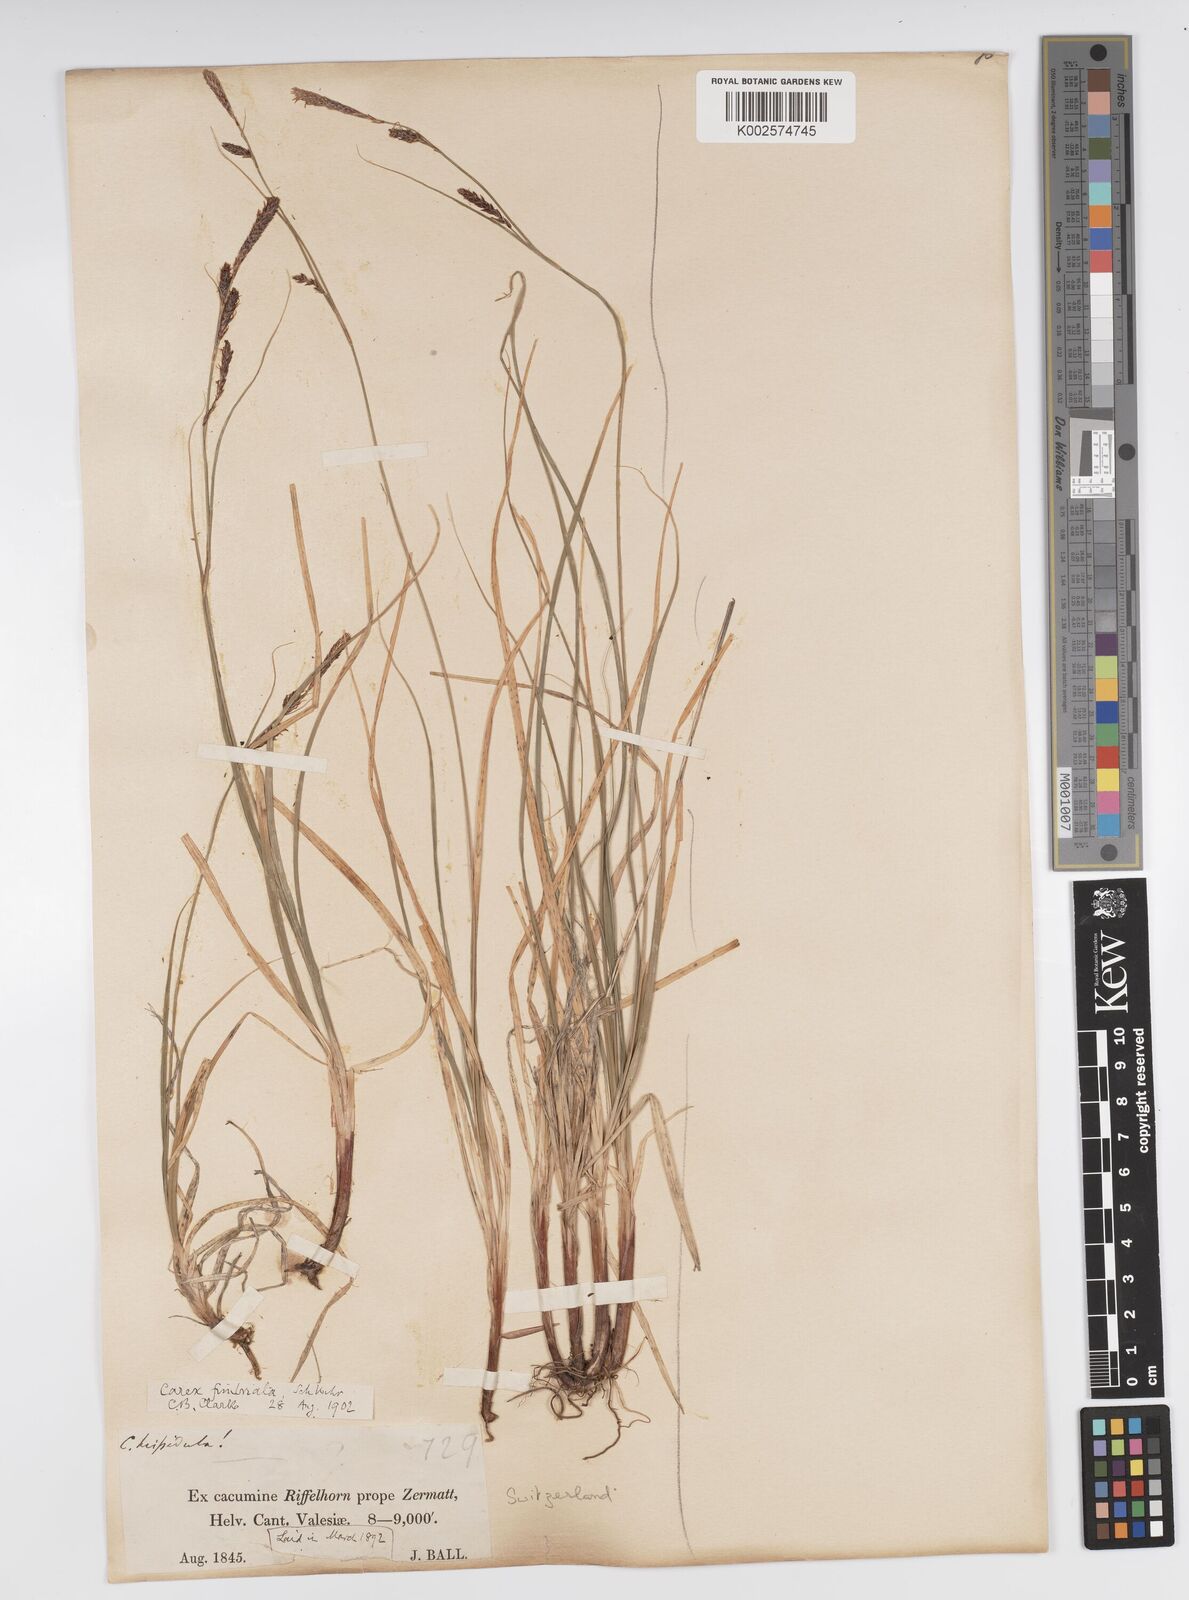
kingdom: Plantae
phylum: Tracheophyta
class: Liliopsida
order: Poales
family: Cyperaceae
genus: Carex
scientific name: Carex fimbriata
